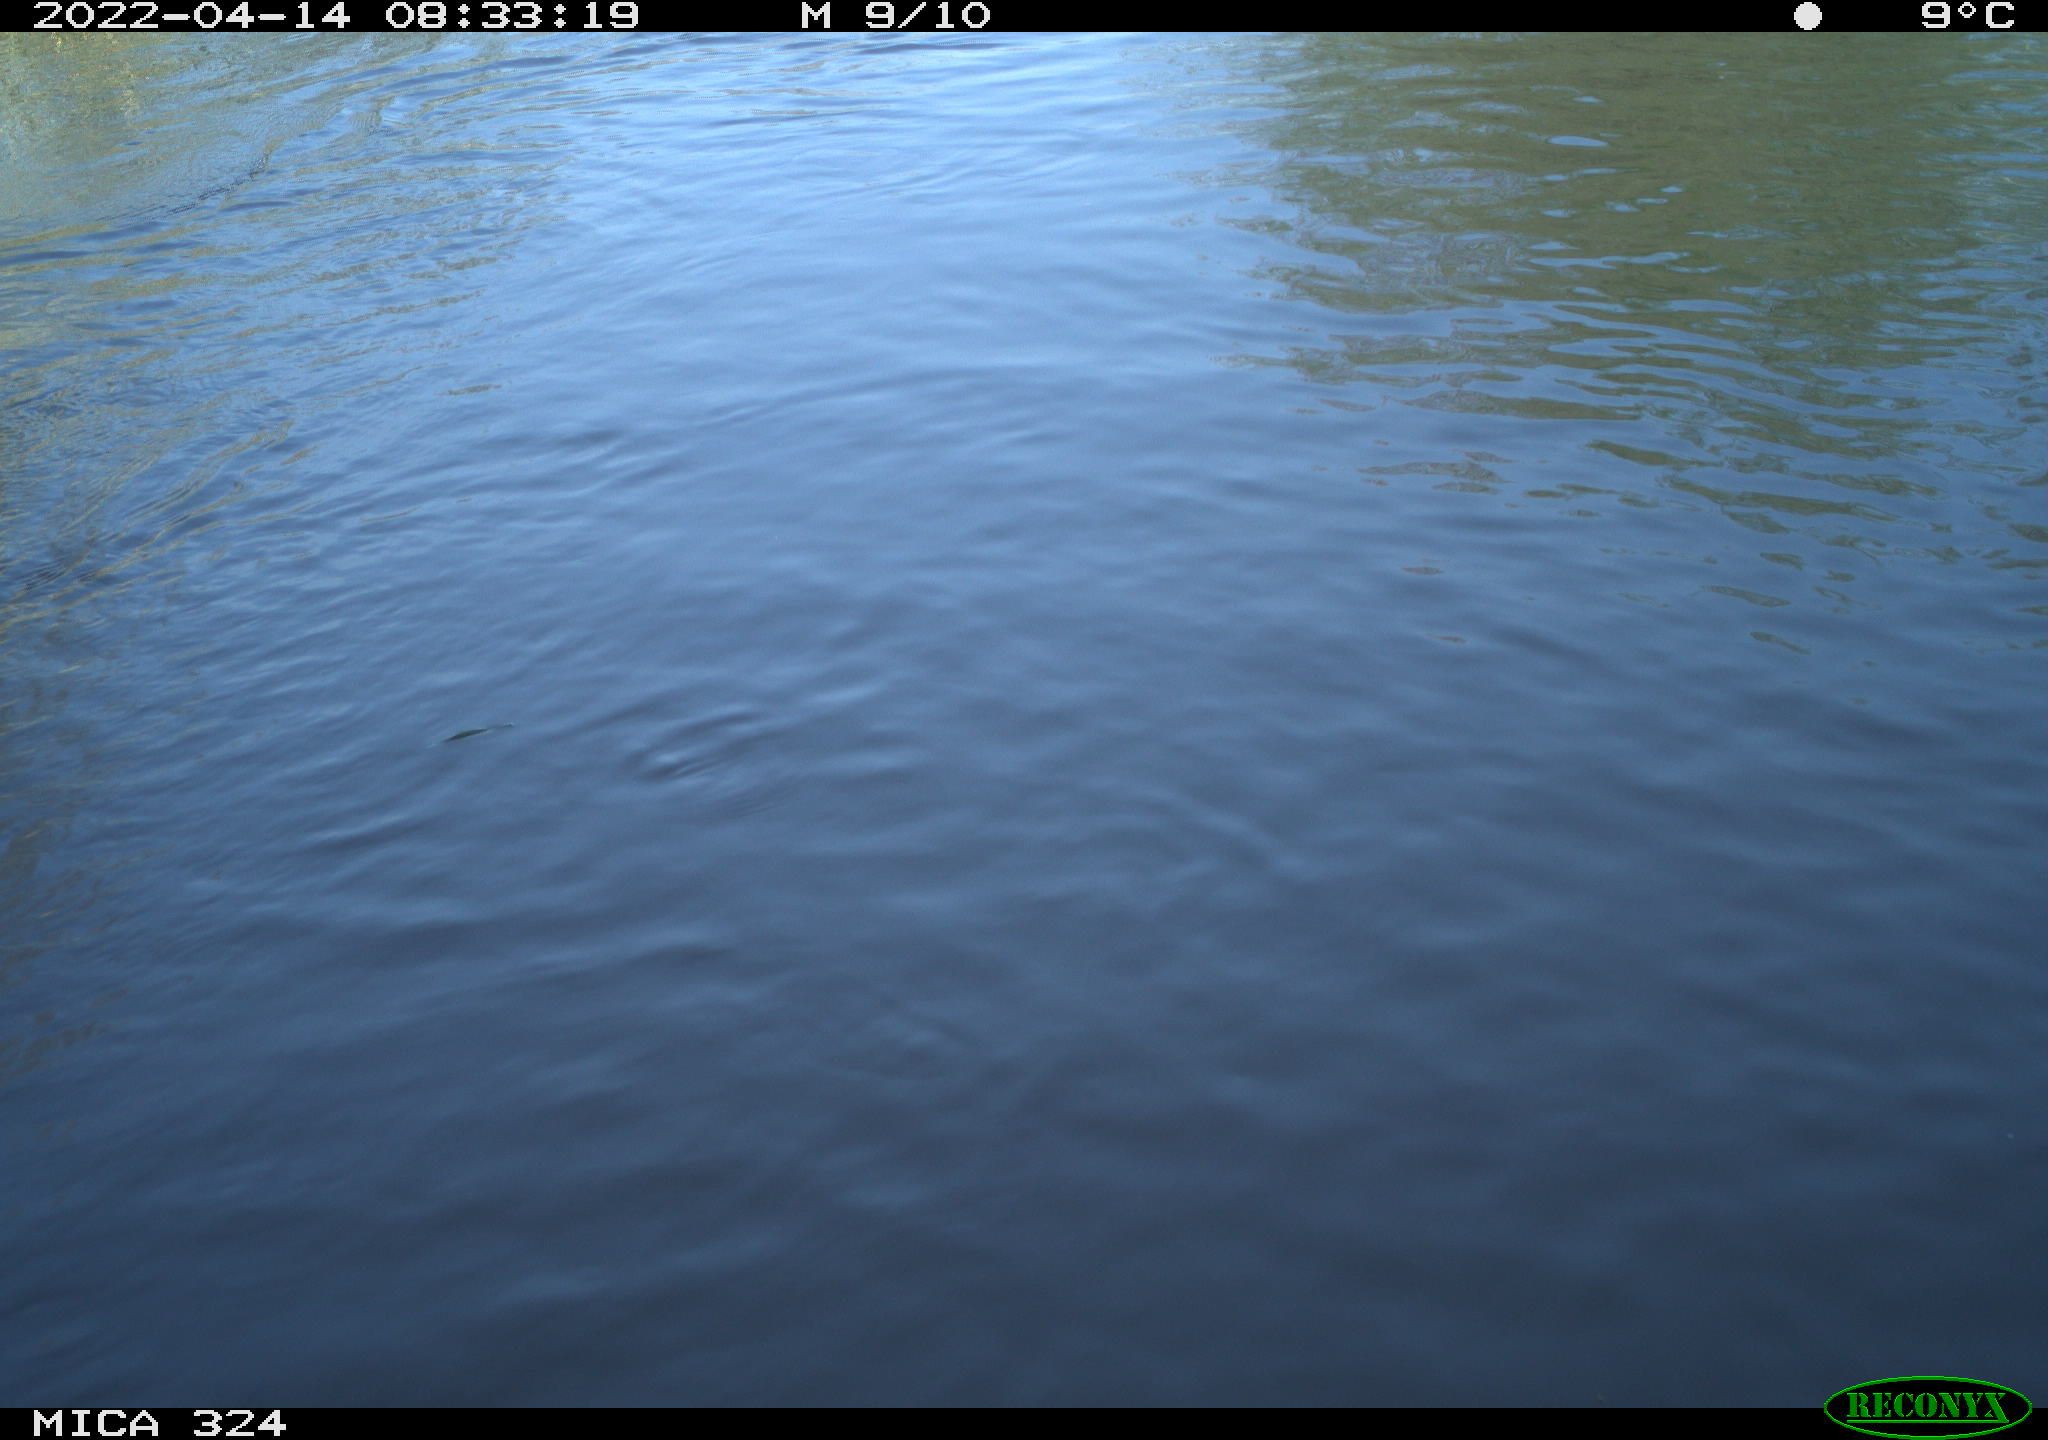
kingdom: Animalia
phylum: Chordata
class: Mammalia
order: Rodentia
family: Cricetidae
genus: Ondatra
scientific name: Ondatra zibethicus
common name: Muskrat
